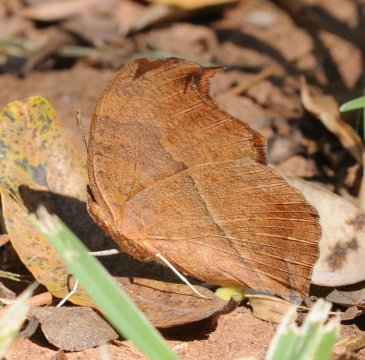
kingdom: Animalia
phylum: Arthropoda
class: Insecta
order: Lepidoptera
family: Nymphalidae
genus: Junonia
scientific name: Junonia antilope
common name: Darker Commodore
